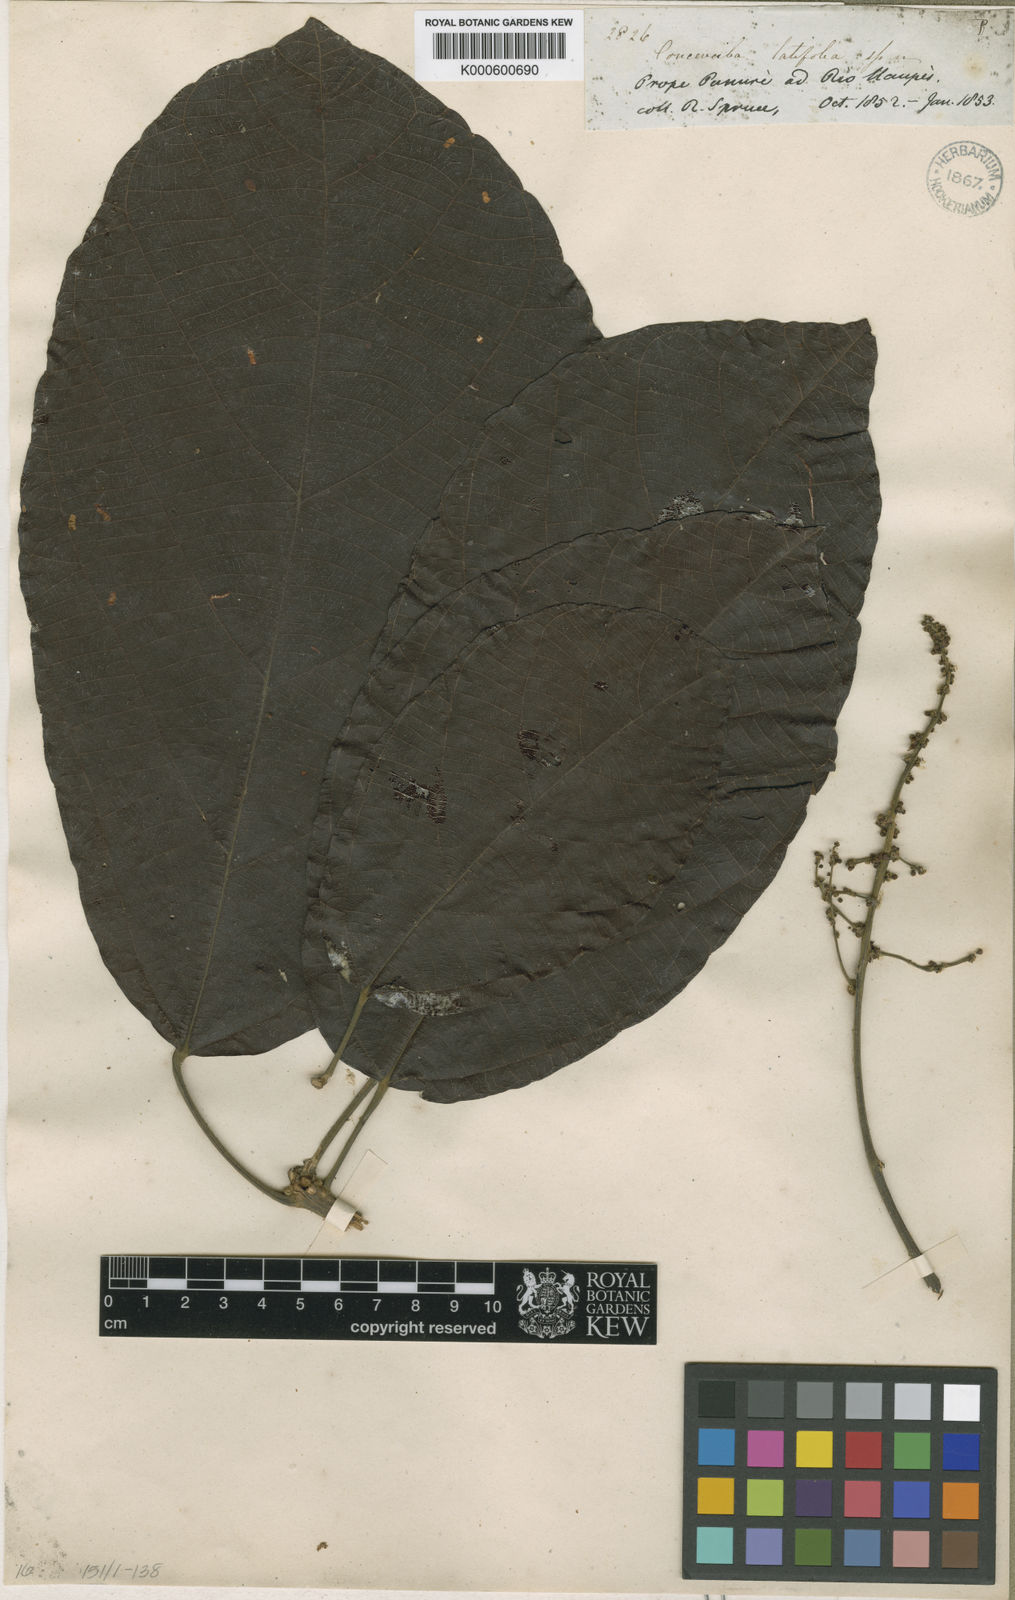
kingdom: Plantae
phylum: Tracheophyta
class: Magnoliopsida
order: Malpighiales
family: Euphorbiaceae
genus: Conceveiba
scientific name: Conceveiba latifolia
